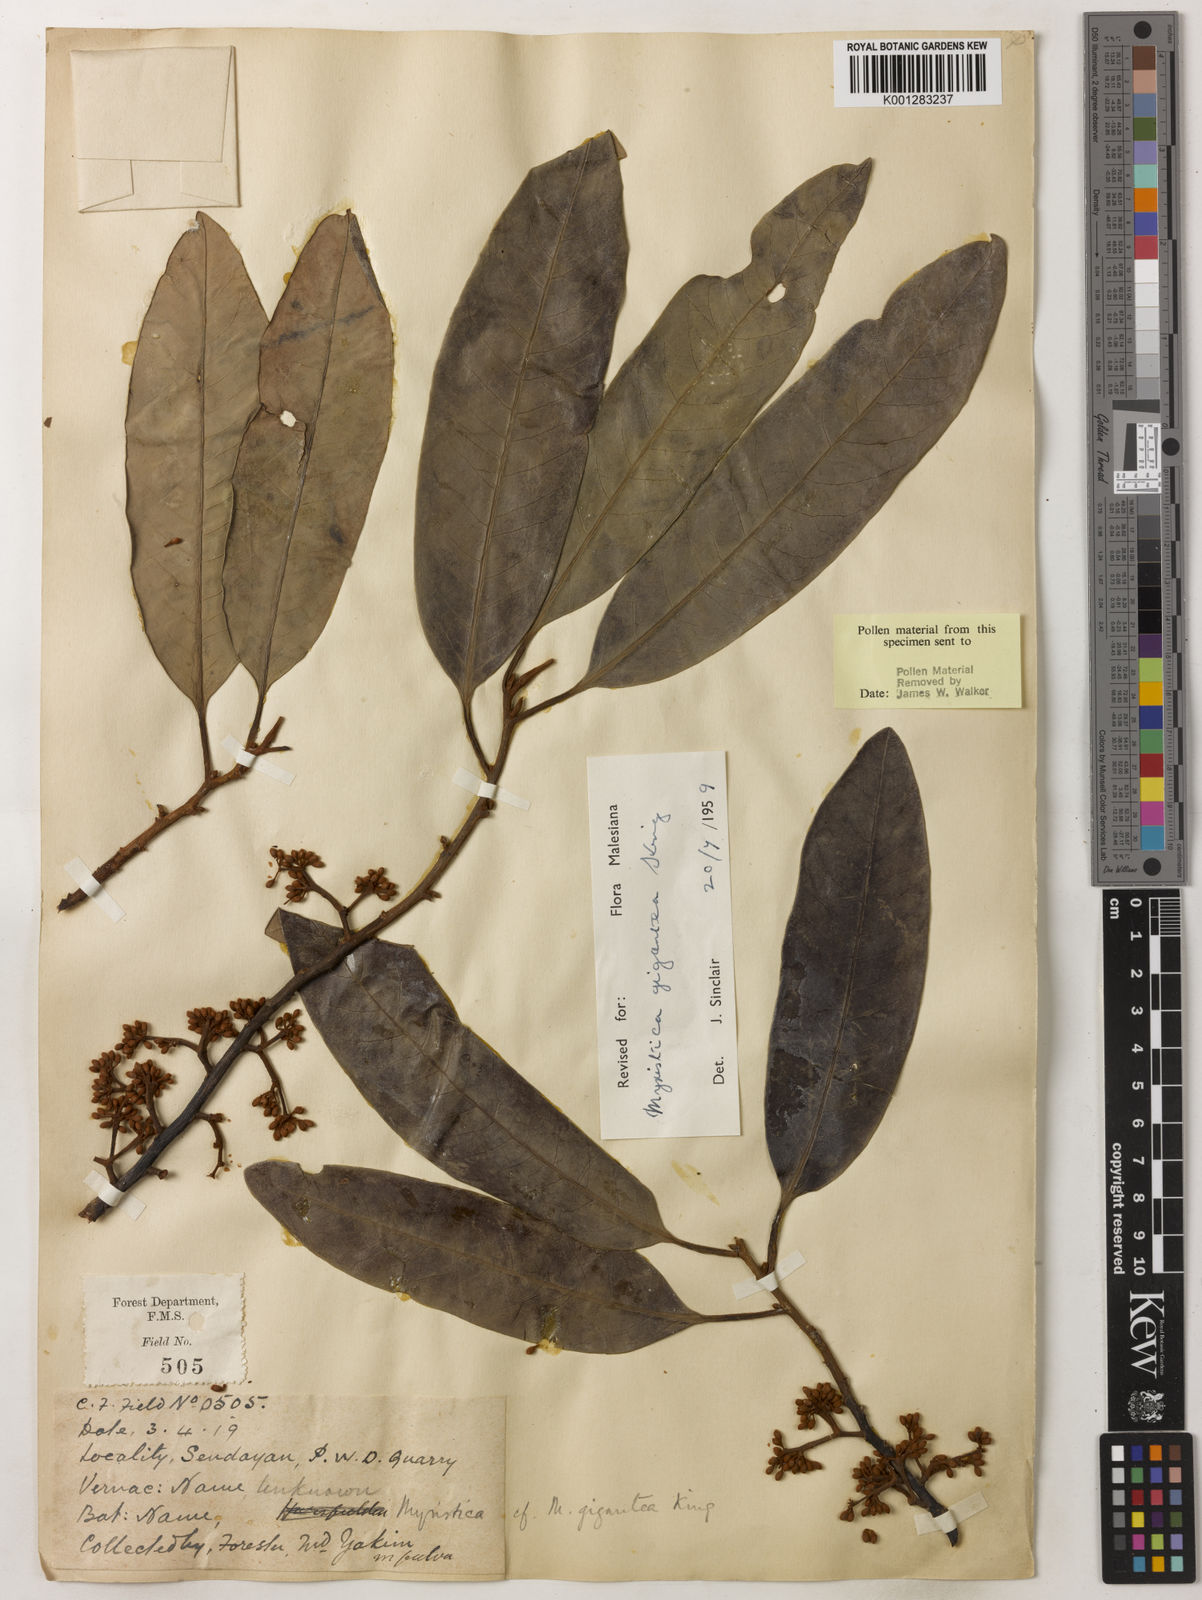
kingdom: Plantae
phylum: Tracheophyta
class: Magnoliopsida
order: Magnoliales
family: Myristicaceae
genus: Myristica
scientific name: Myristica gigantea
